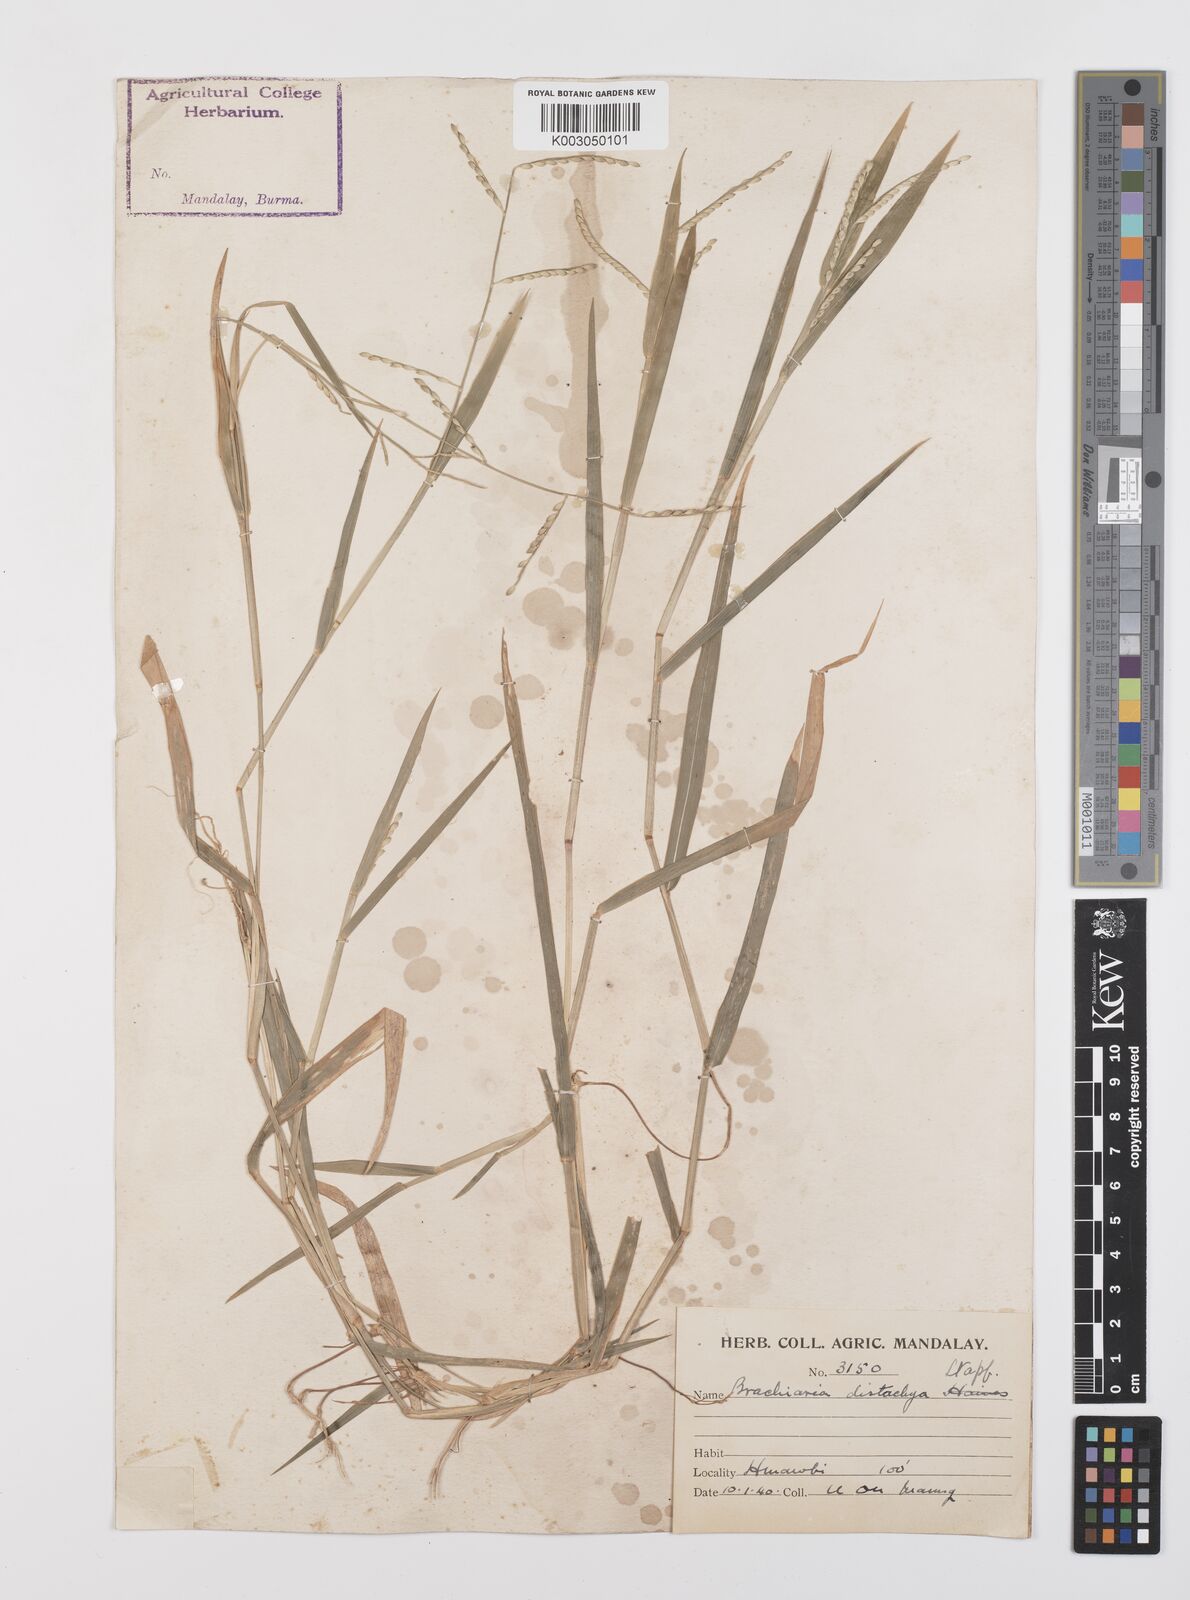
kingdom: Plantae
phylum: Tracheophyta
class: Liliopsida
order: Poales
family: Poaceae
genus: Urochloa
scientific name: Urochloa subquadripara
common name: Armgrass millet
